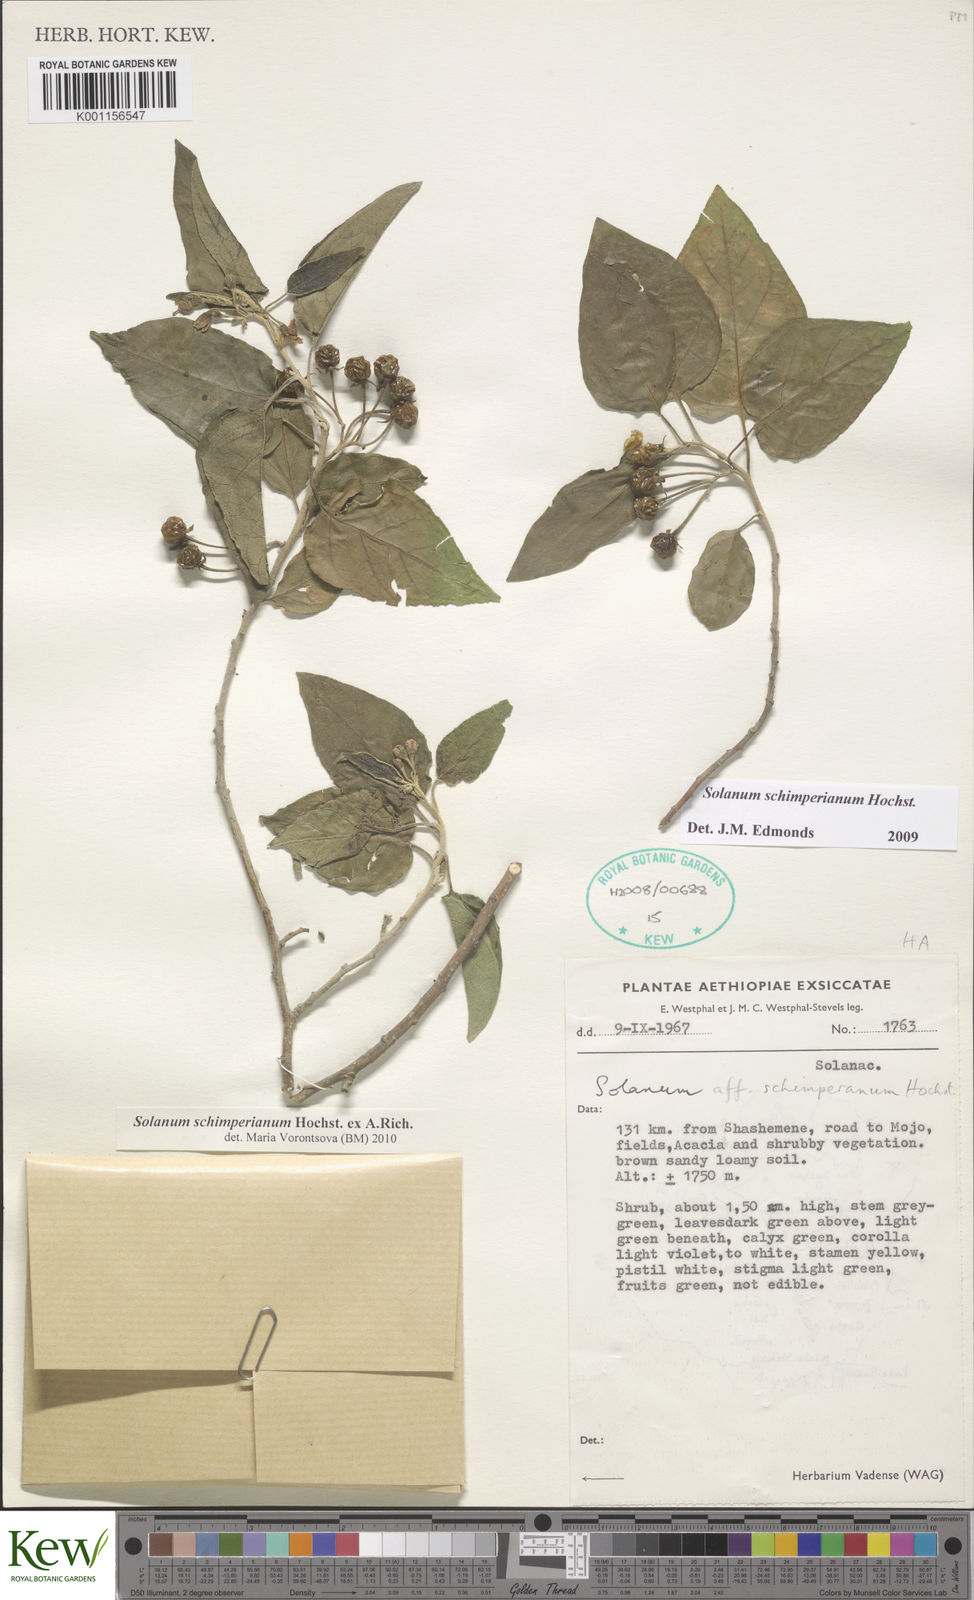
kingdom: Plantae
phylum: Tracheophyta
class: Magnoliopsida
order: Solanales
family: Solanaceae
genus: Solanum
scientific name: Solanum
